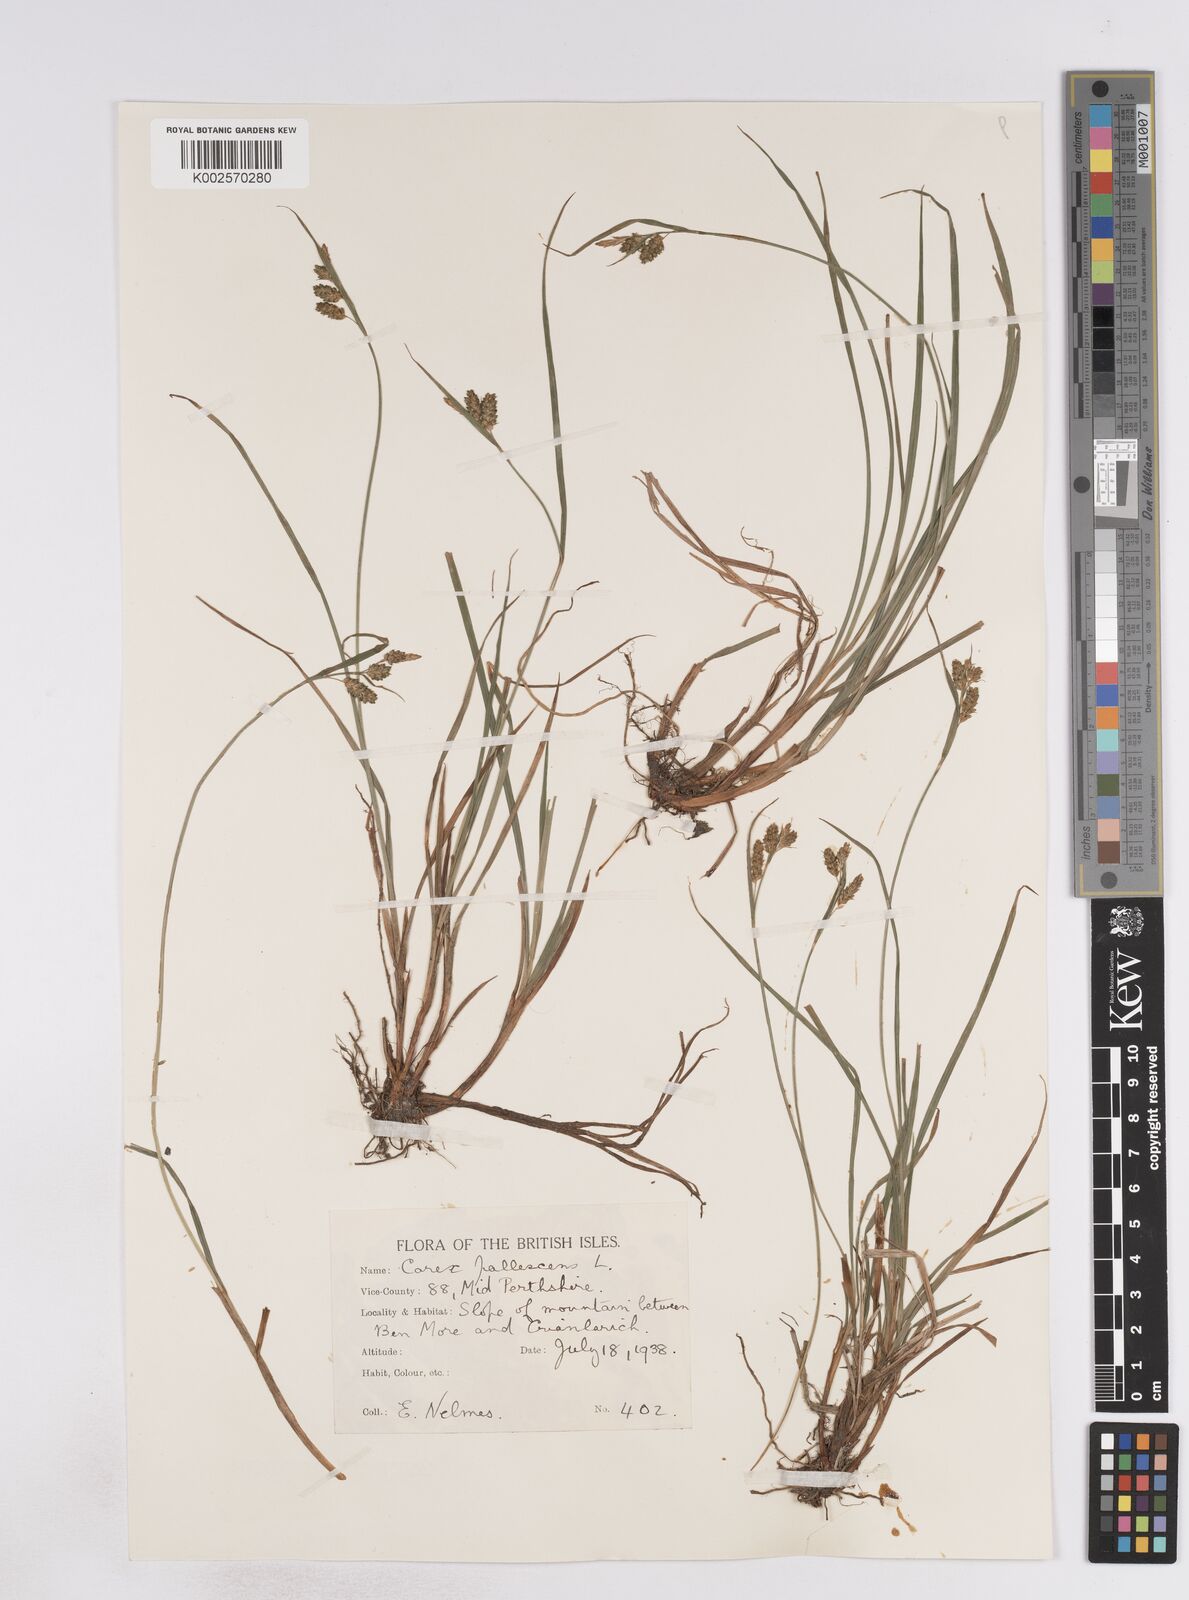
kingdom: Plantae
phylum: Tracheophyta
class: Liliopsida
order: Poales
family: Cyperaceae
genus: Carex
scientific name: Carex pallescens
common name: Pale sedge
